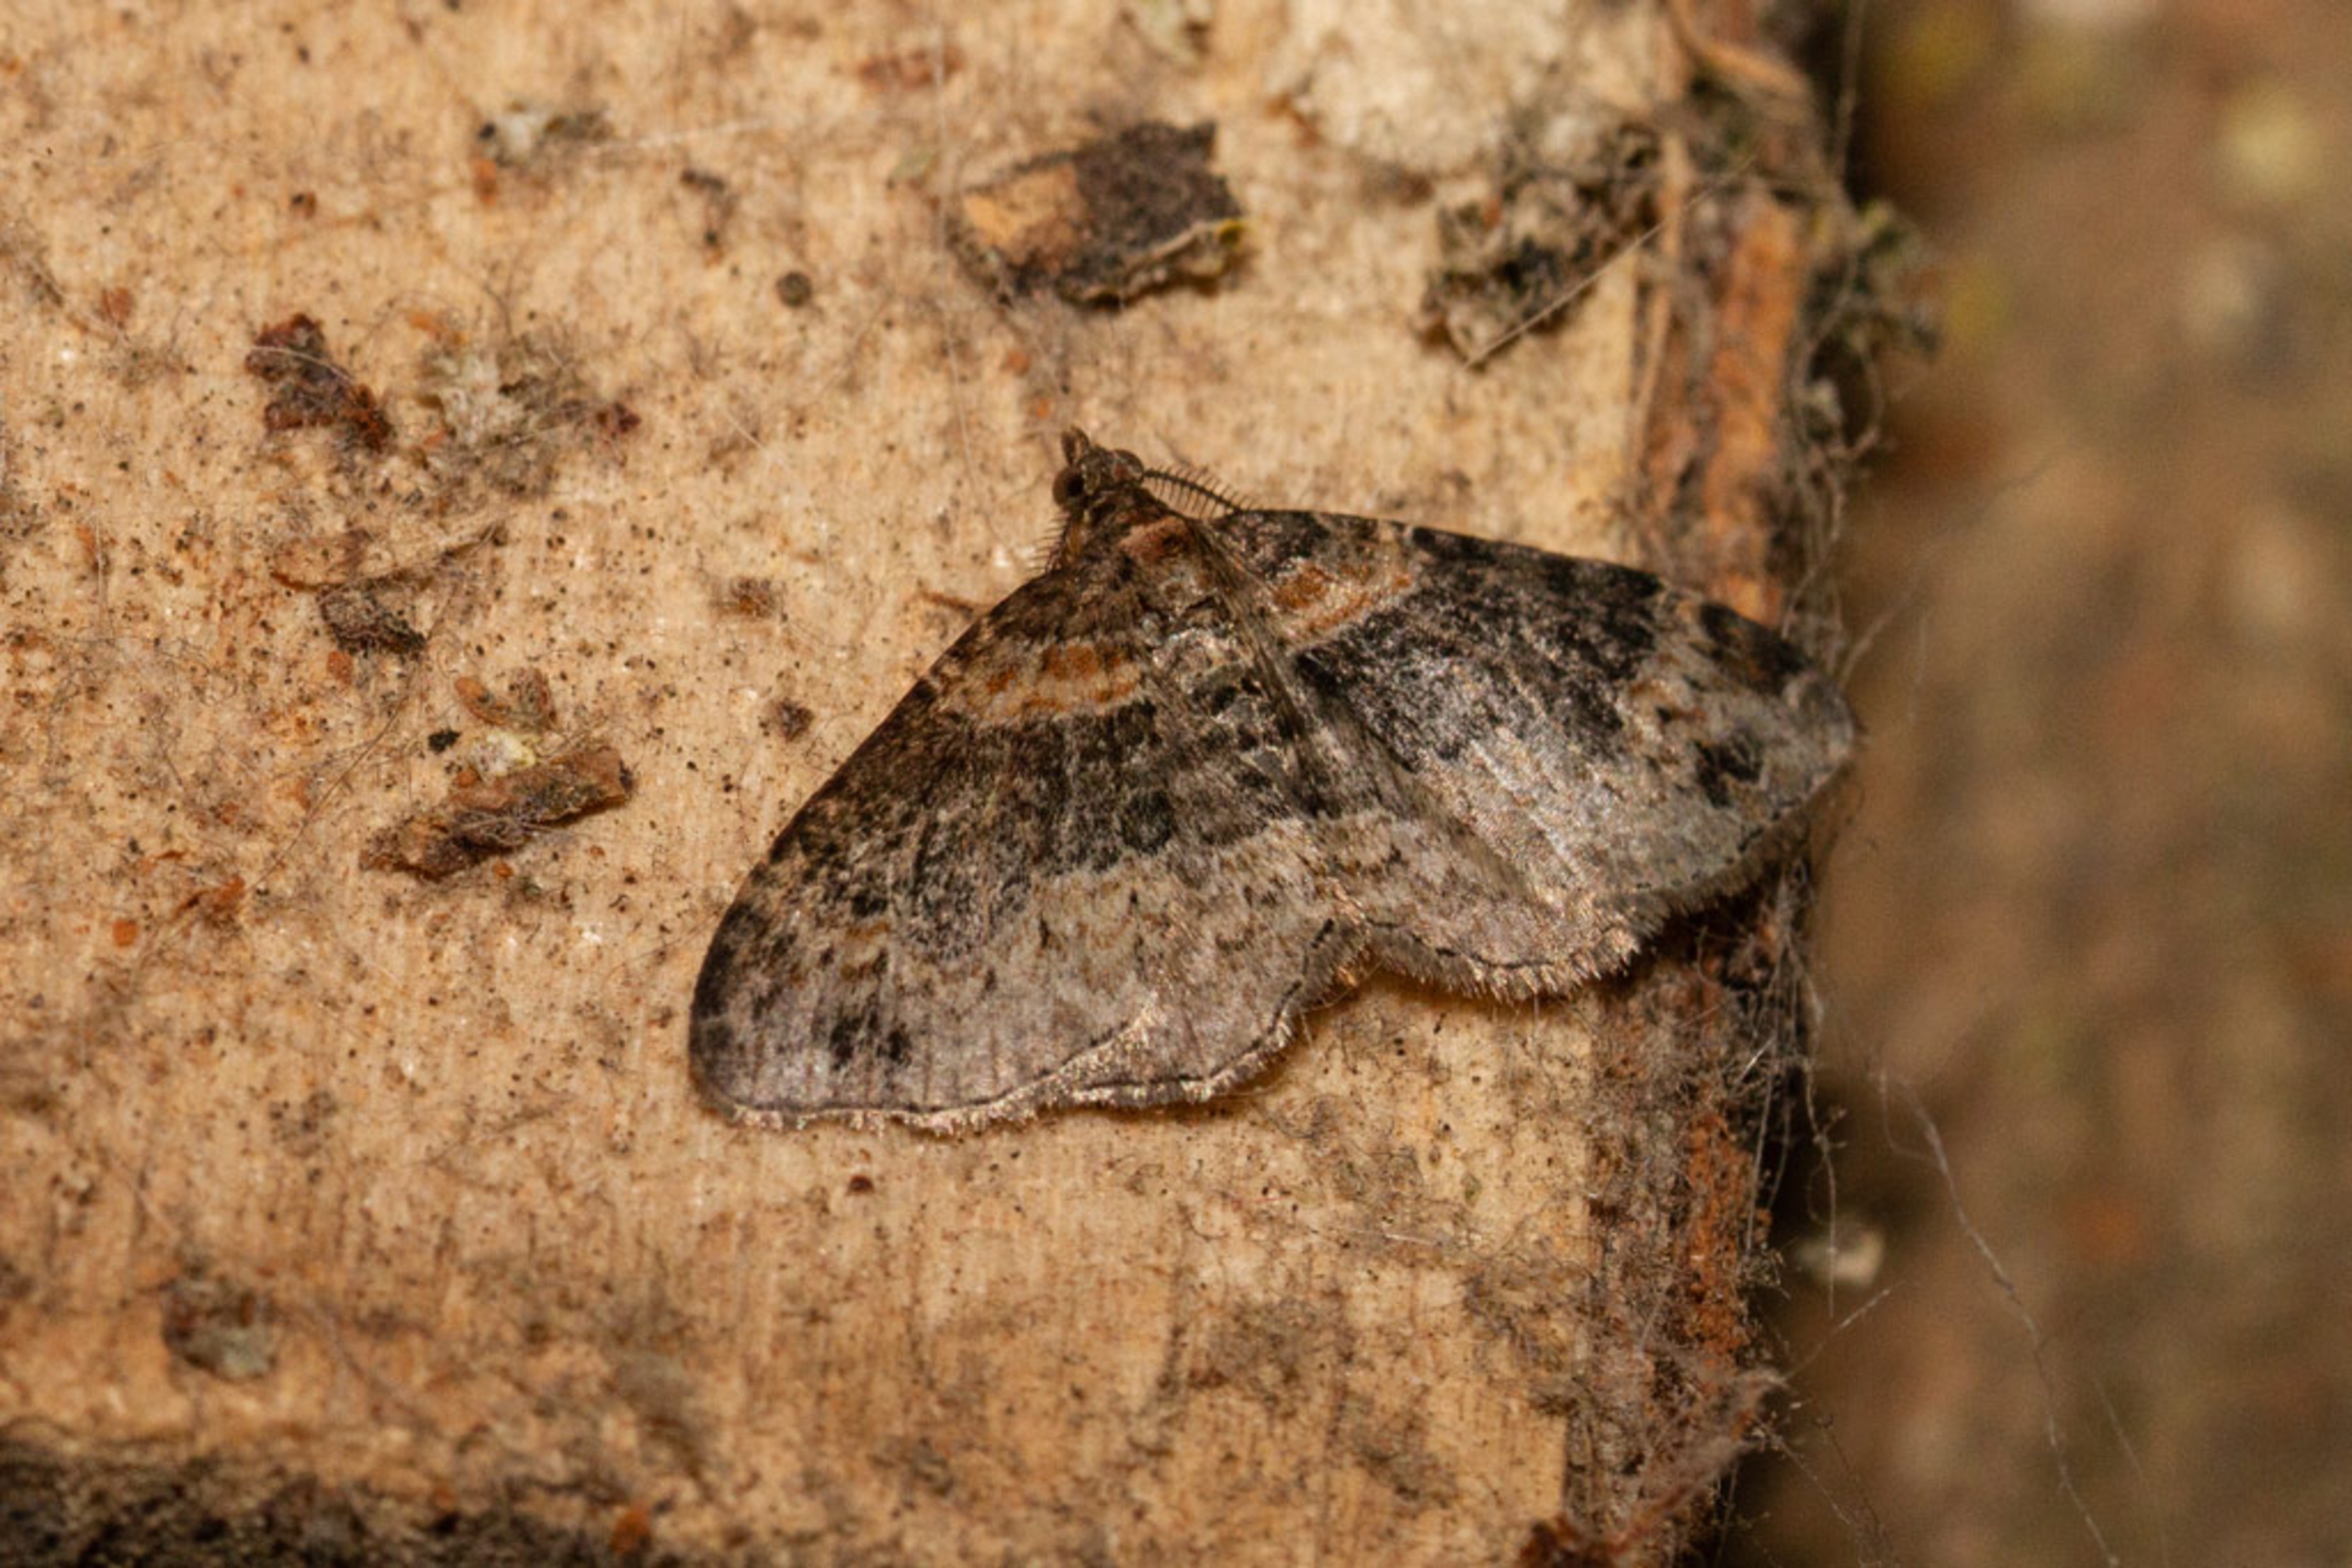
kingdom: Animalia
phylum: Arthropoda
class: Insecta
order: Lepidoptera
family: Geometridae
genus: Xanthorhoe
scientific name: Xanthorhoe ferrugata
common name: Rustbladmåler
